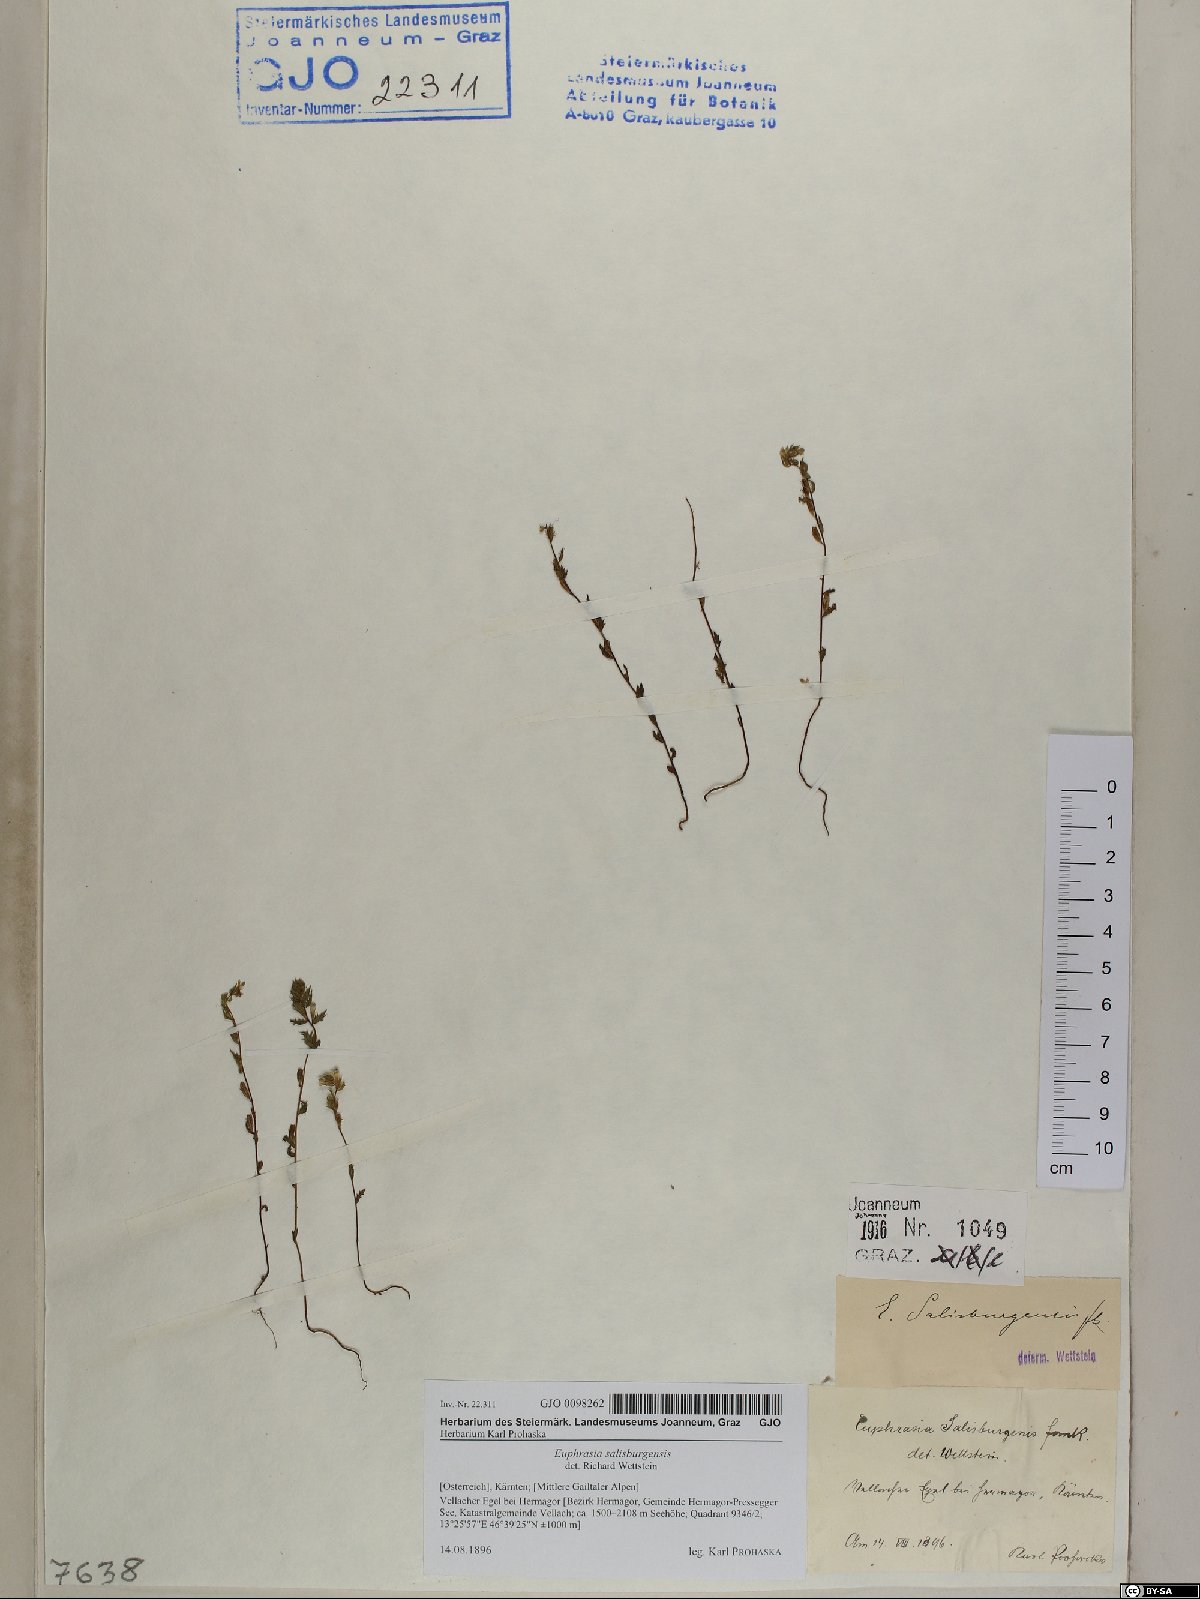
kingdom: Plantae
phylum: Tracheophyta
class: Magnoliopsida
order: Lamiales
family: Orobanchaceae
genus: Euphrasia
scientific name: Euphrasia salisburgensis
